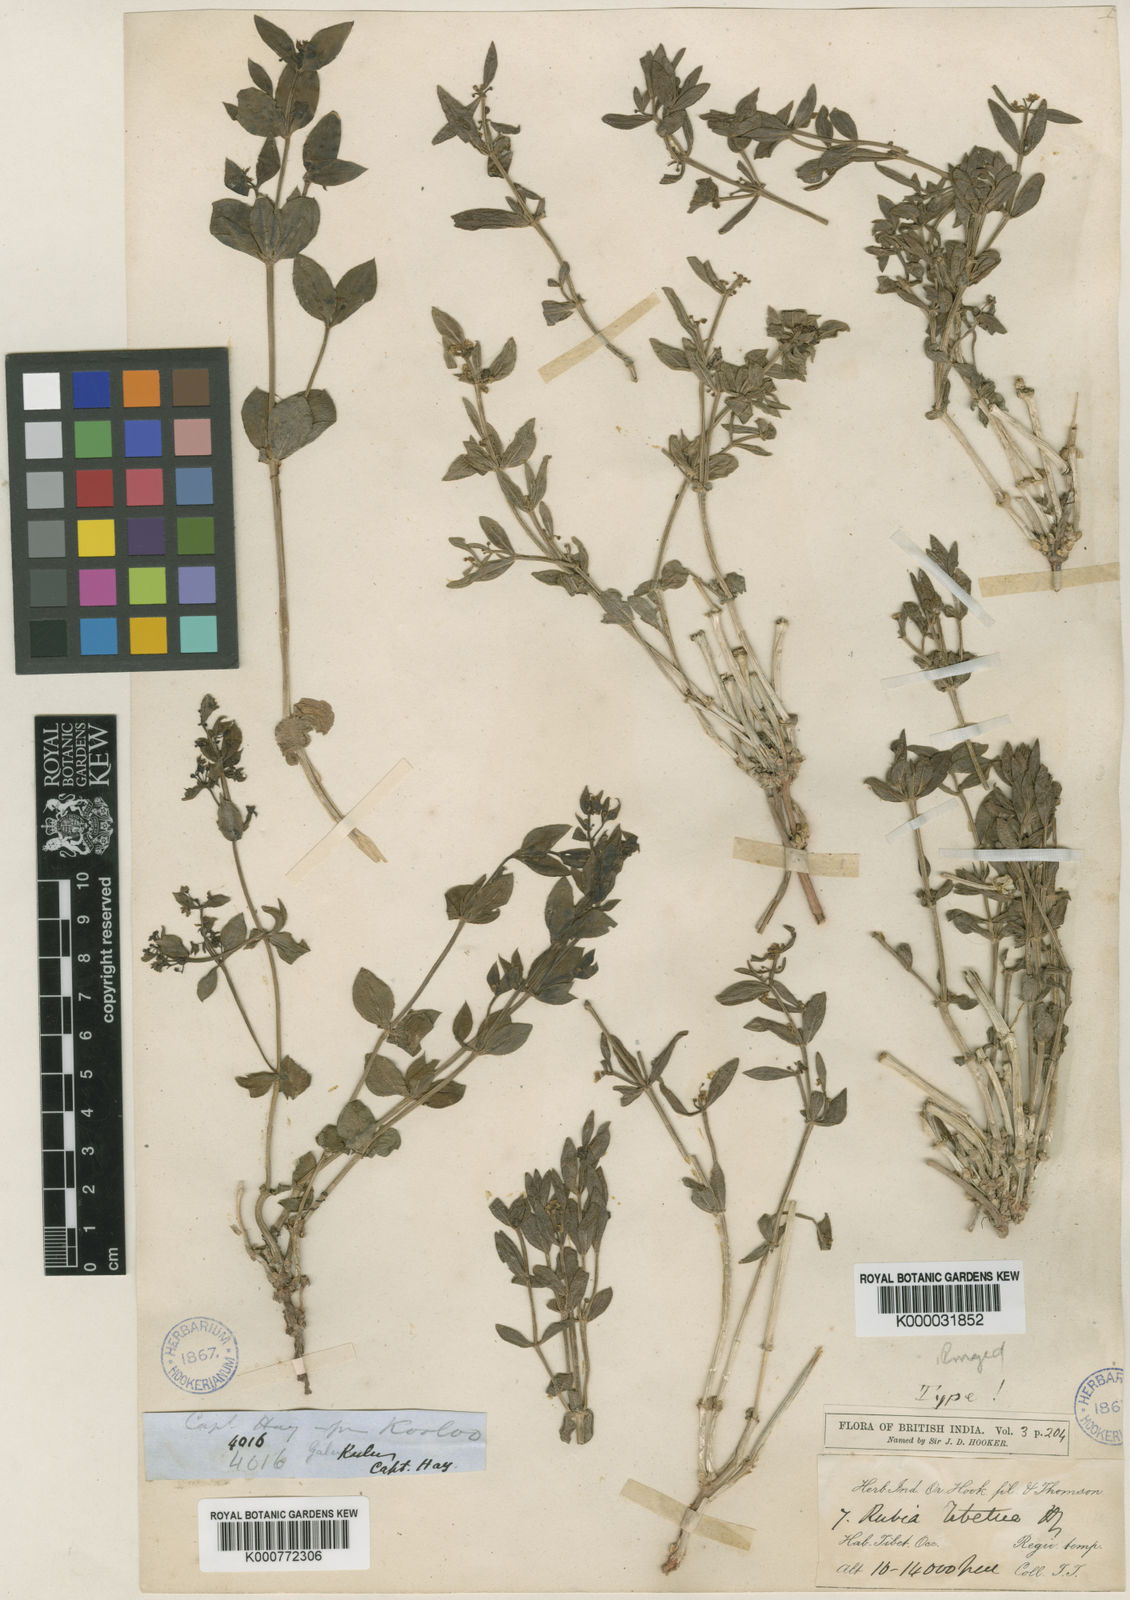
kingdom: Plantae
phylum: Tracheophyta
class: Magnoliopsida
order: Gentianales
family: Rubiaceae
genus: Rubia
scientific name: Rubia tibetica
